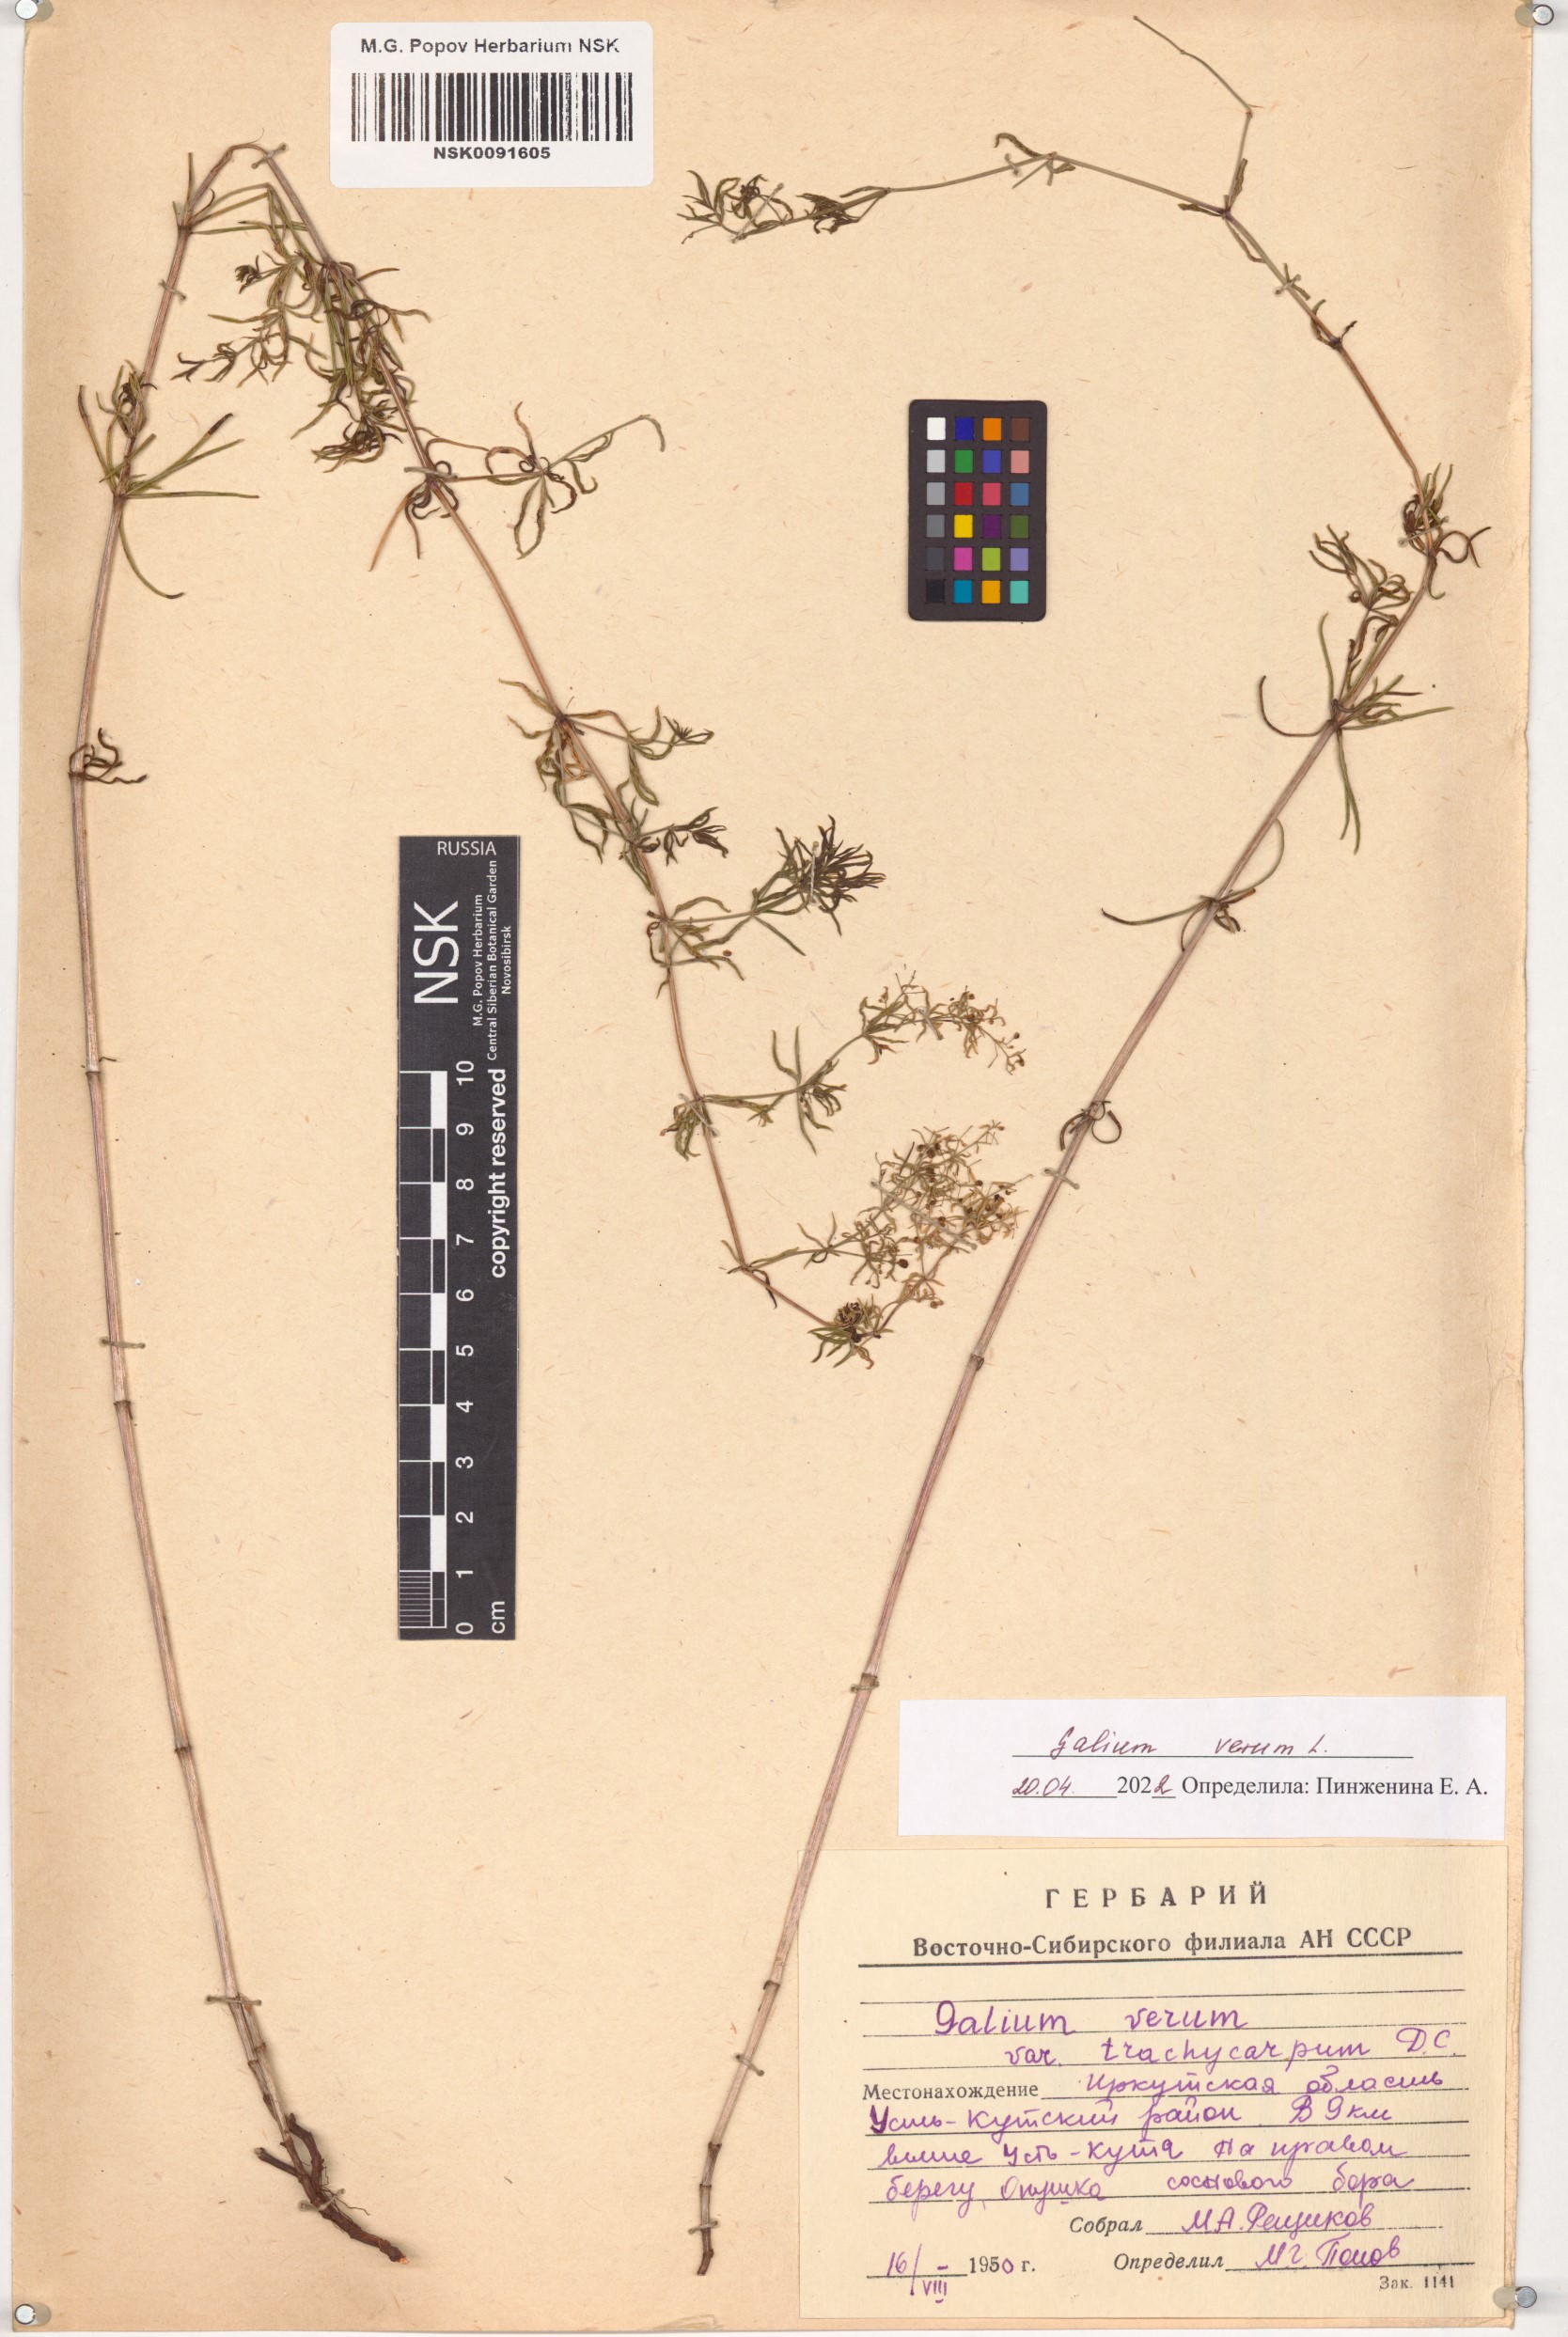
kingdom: Plantae
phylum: Tracheophyta
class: Magnoliopsida
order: Gentianales
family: Rubiaceae
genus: Galium
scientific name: Galium verum
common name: Lady's bedstraw
